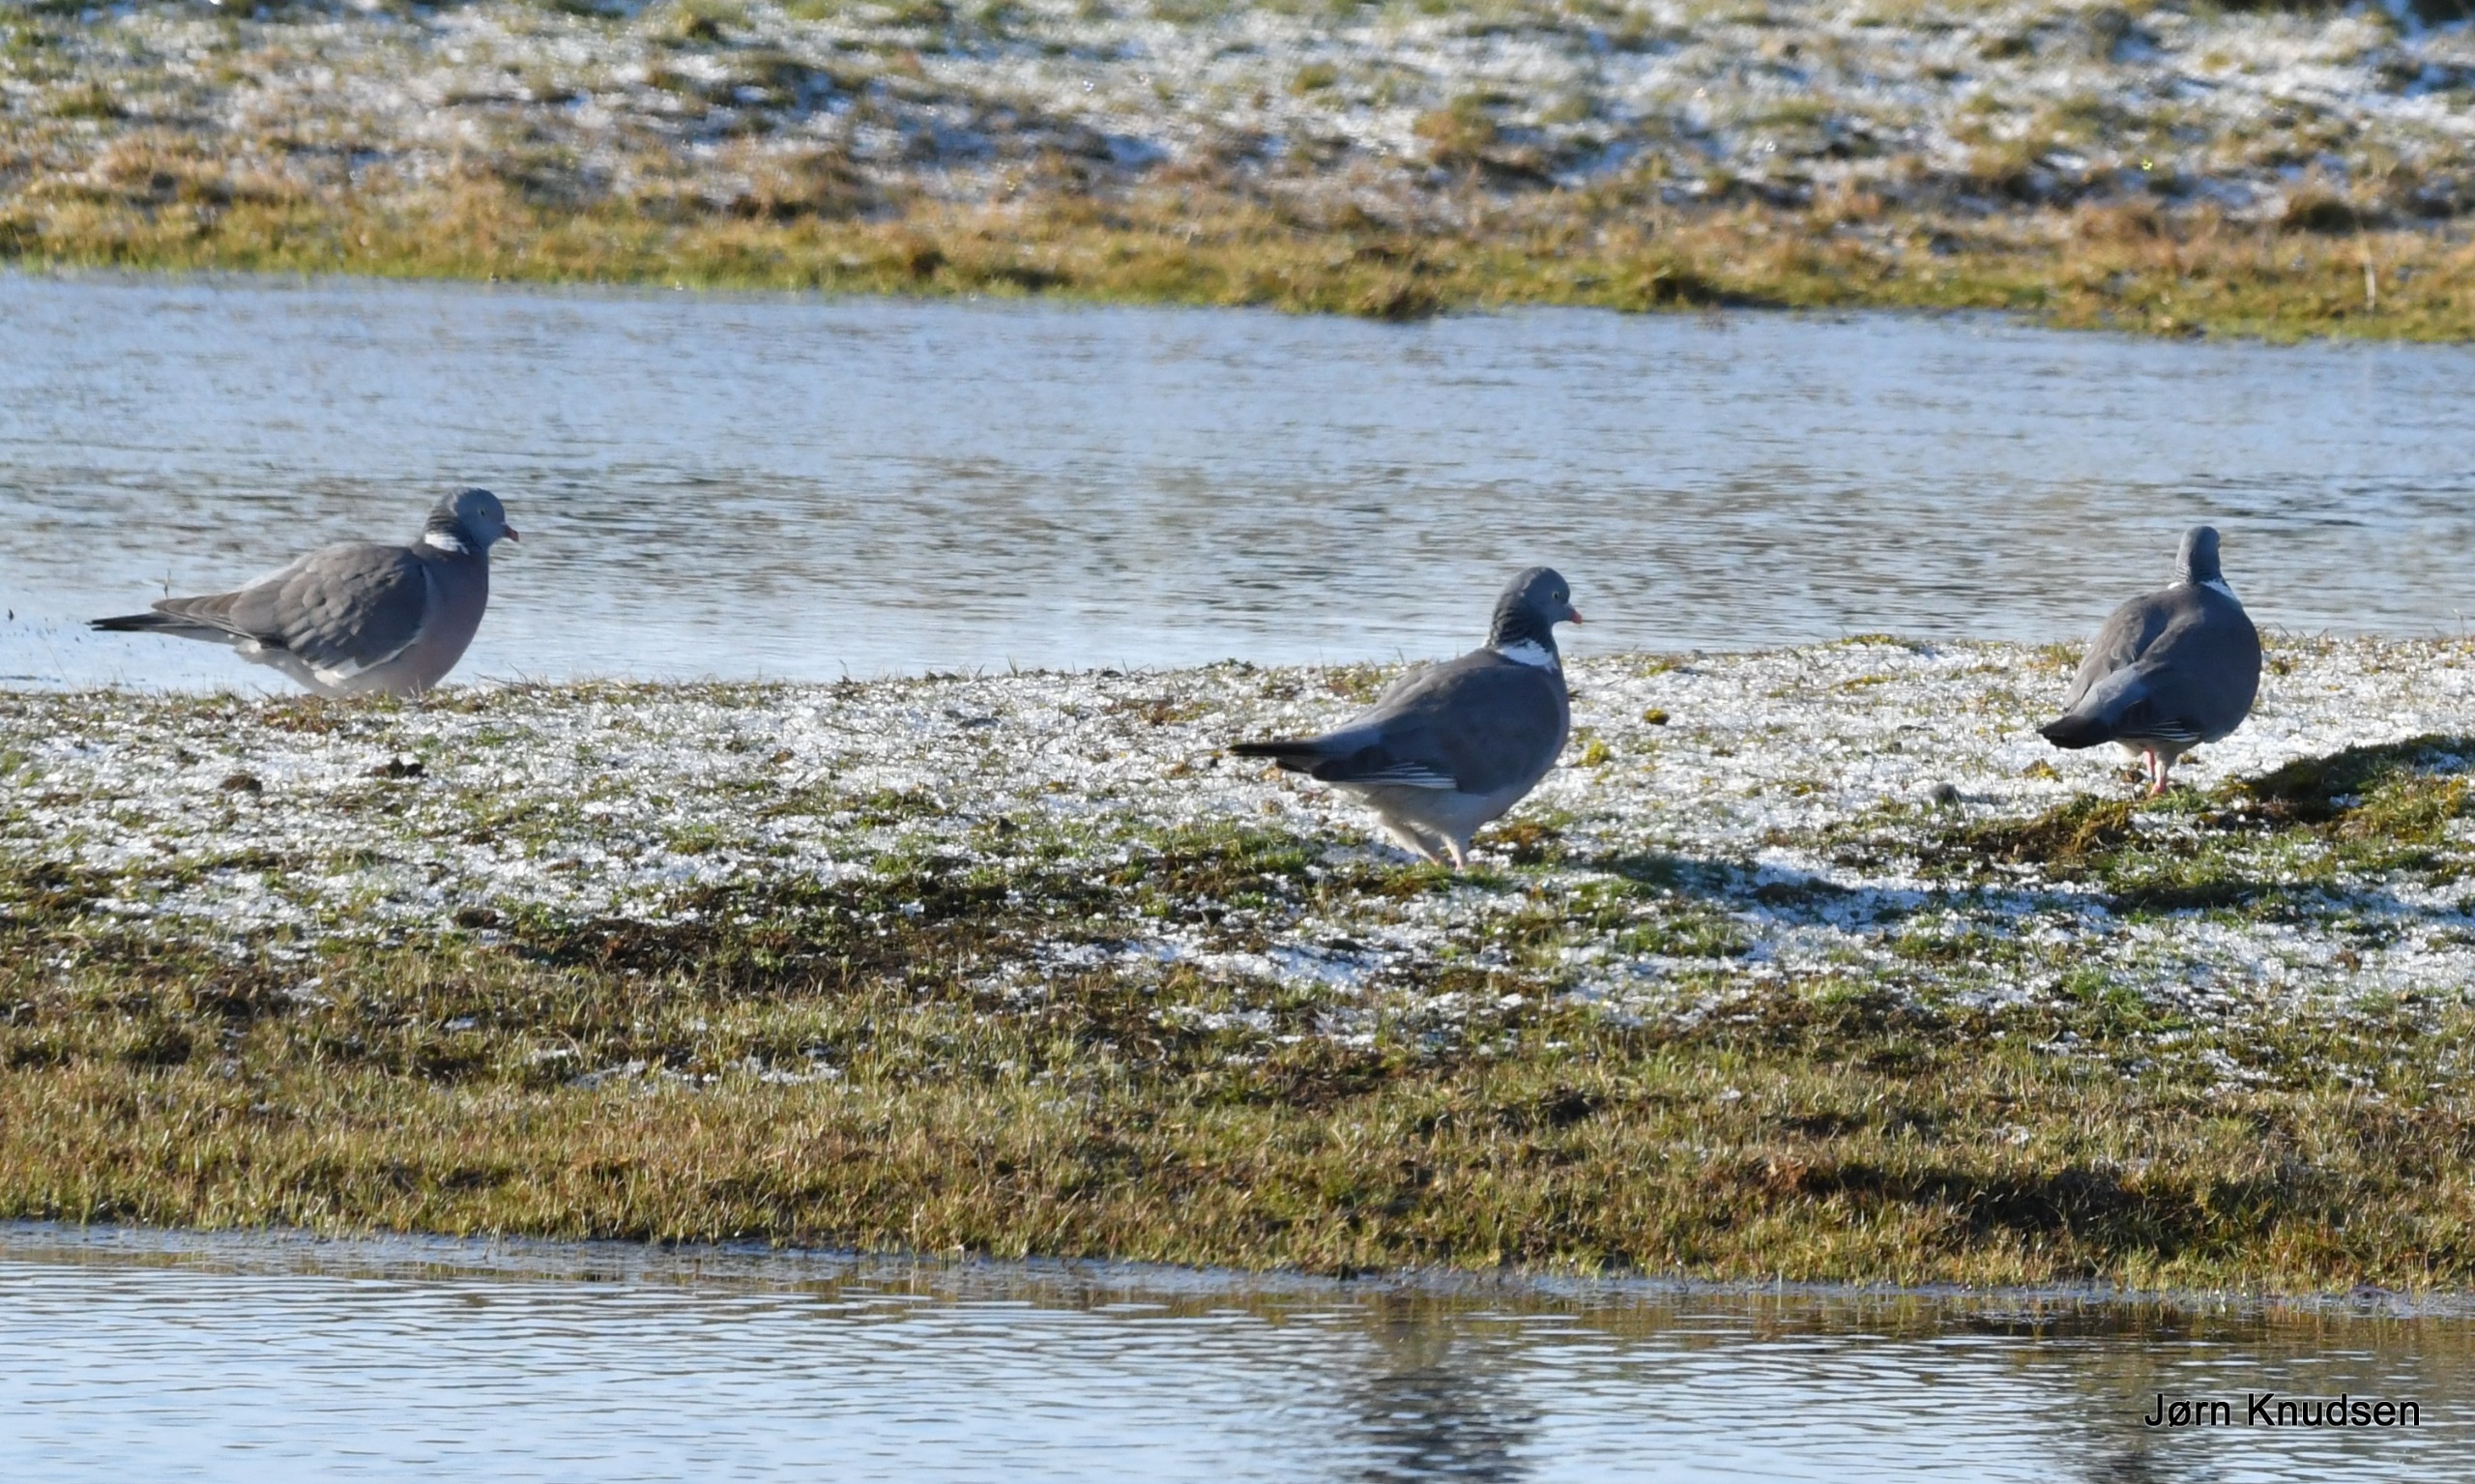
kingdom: Animalia
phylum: Chordata
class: Aves
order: Columbiformes
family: Columbidae
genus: Columba
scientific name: Columba palumbus
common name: Ringdue
